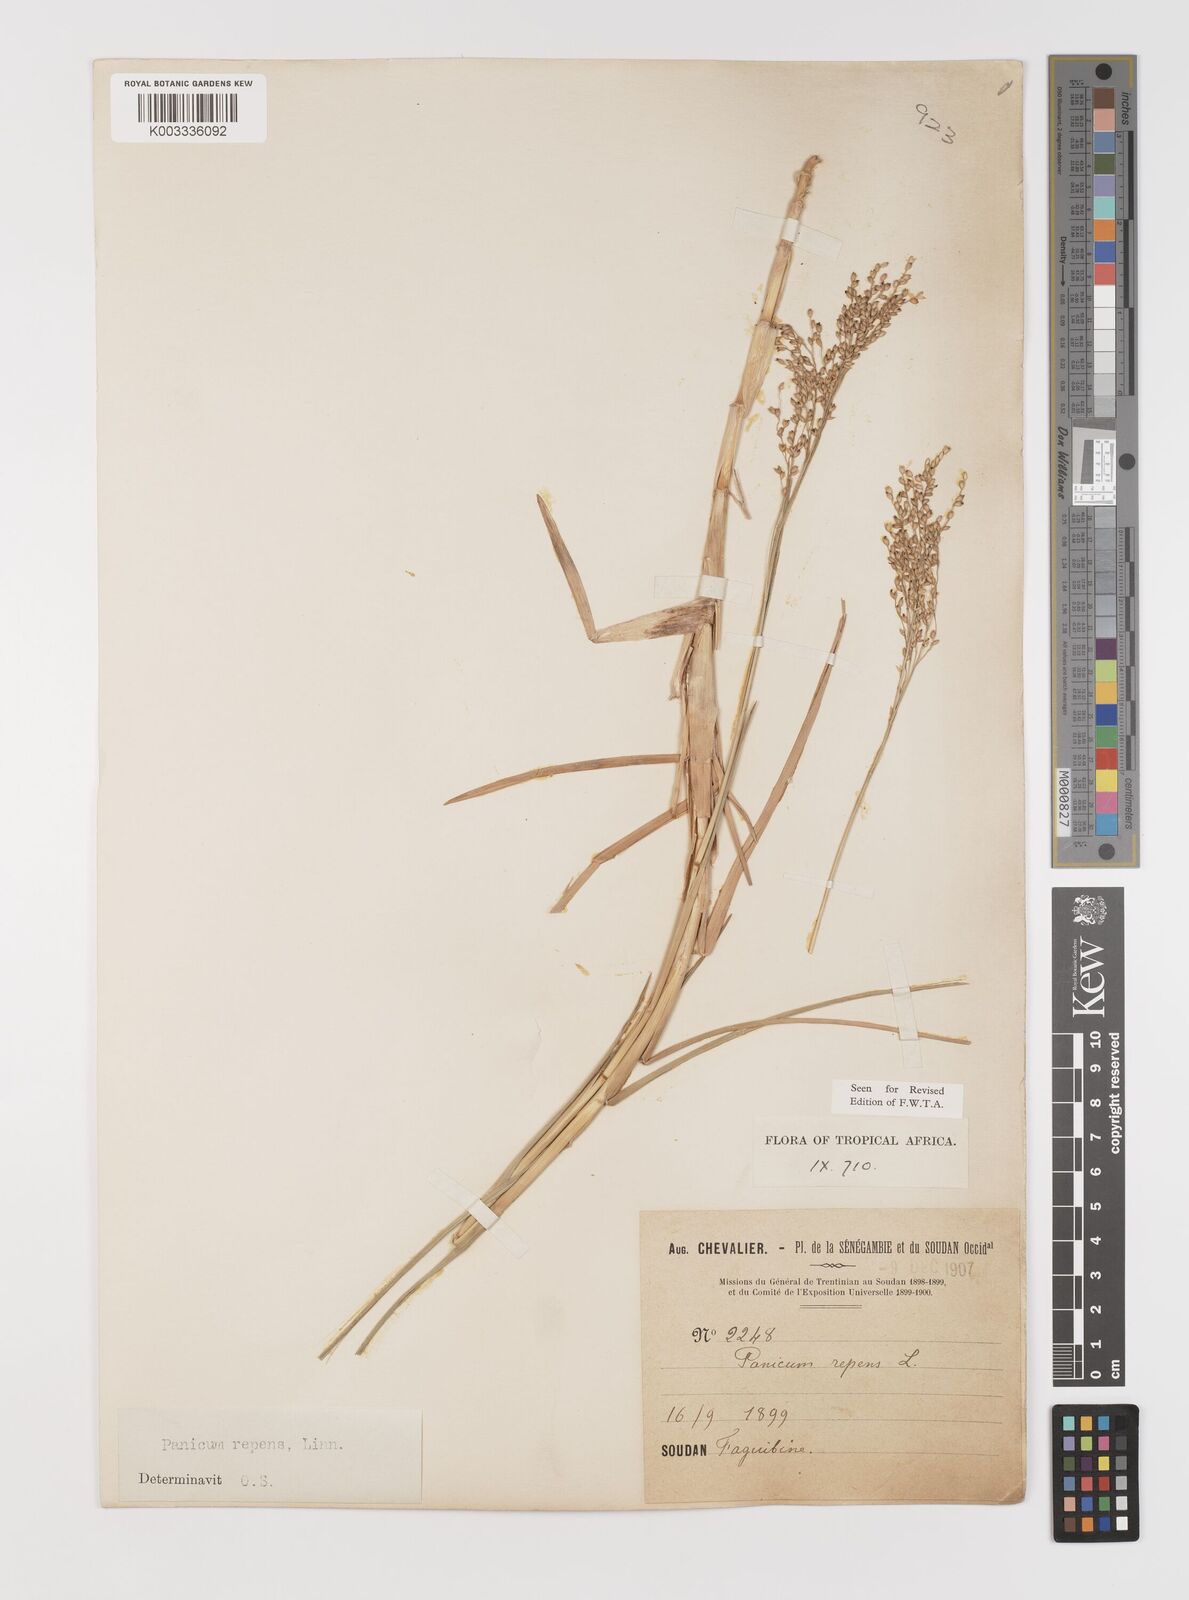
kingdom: Plantae
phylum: Tracheophyta
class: Liliopsida
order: Poales
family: Poaceae
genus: Panicum
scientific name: Panicum repens
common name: Torpedo grass
